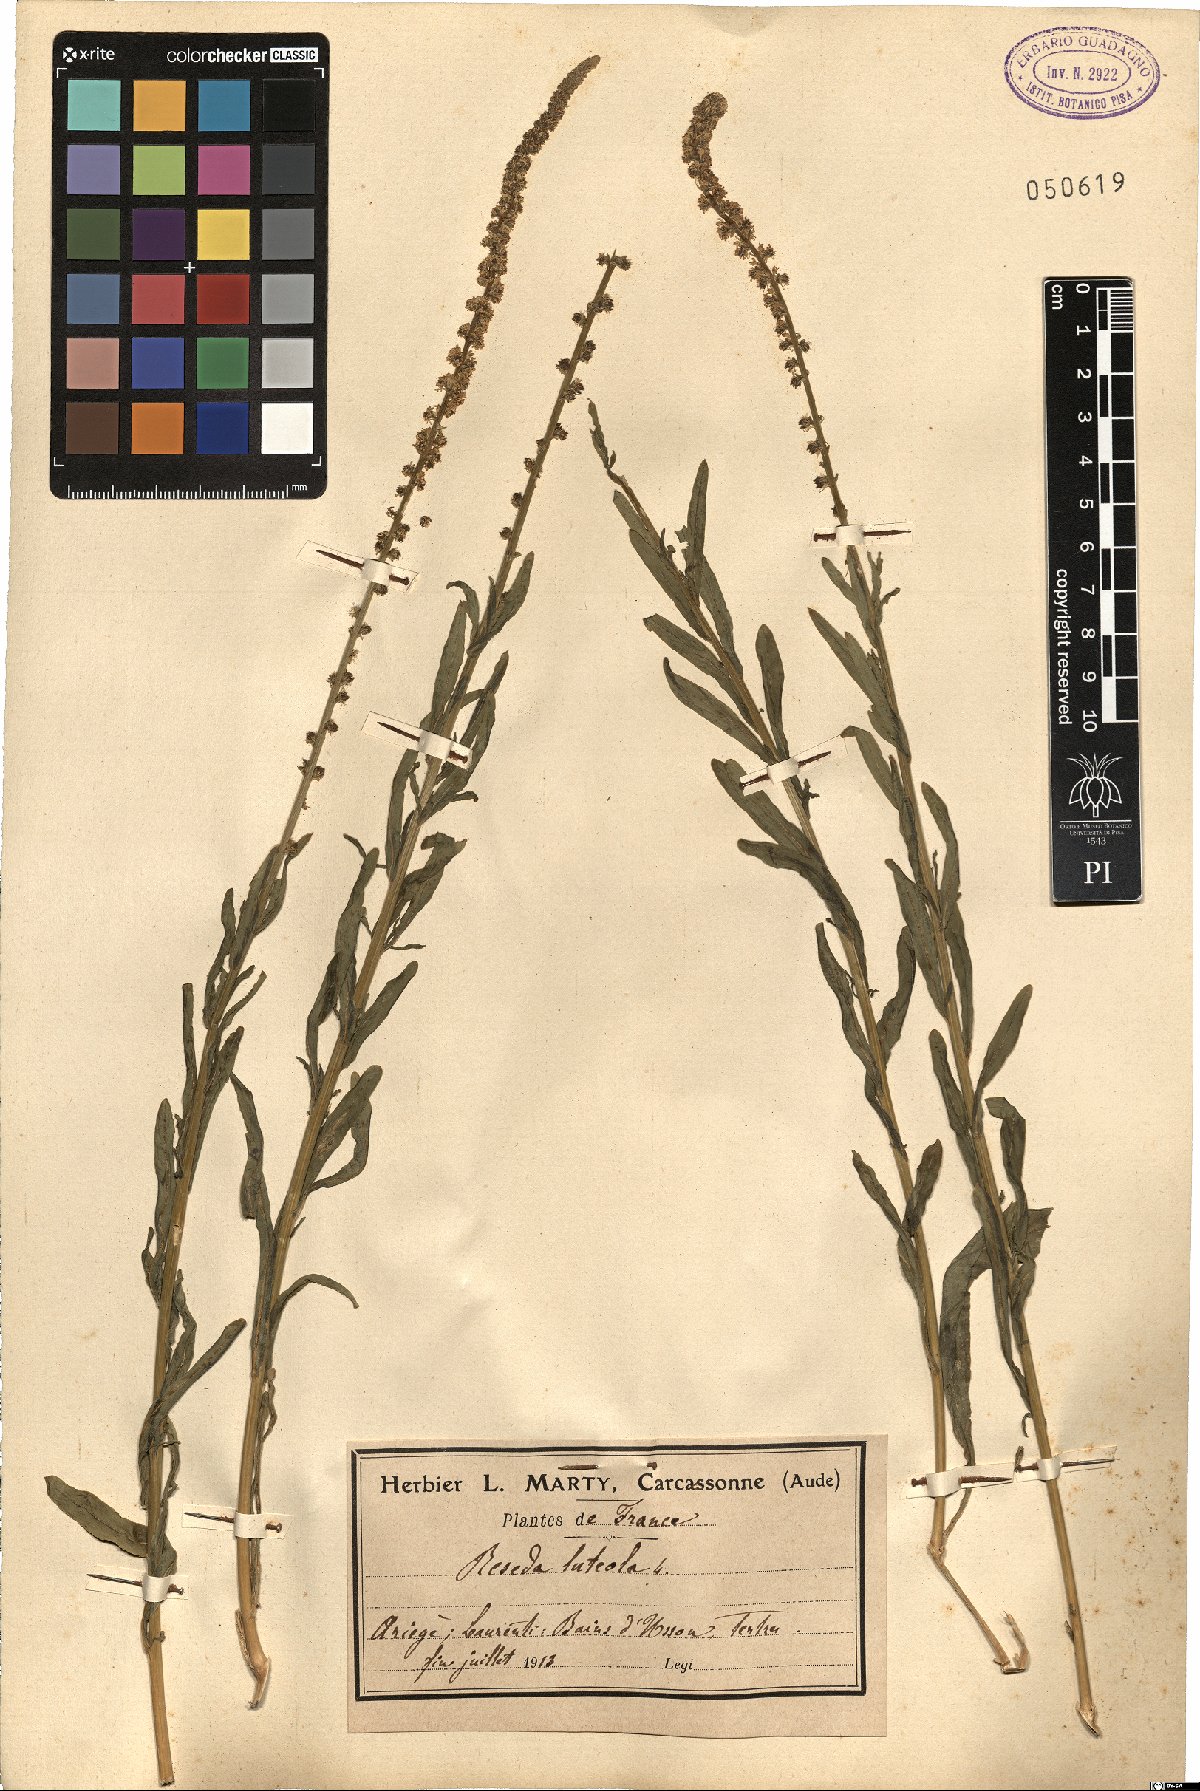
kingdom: Plantae
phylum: Tracheophyta
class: Magnoliopsida
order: Brassicales
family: Resedaceae
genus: Reseda
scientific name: Reseda luteola
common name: Weld
